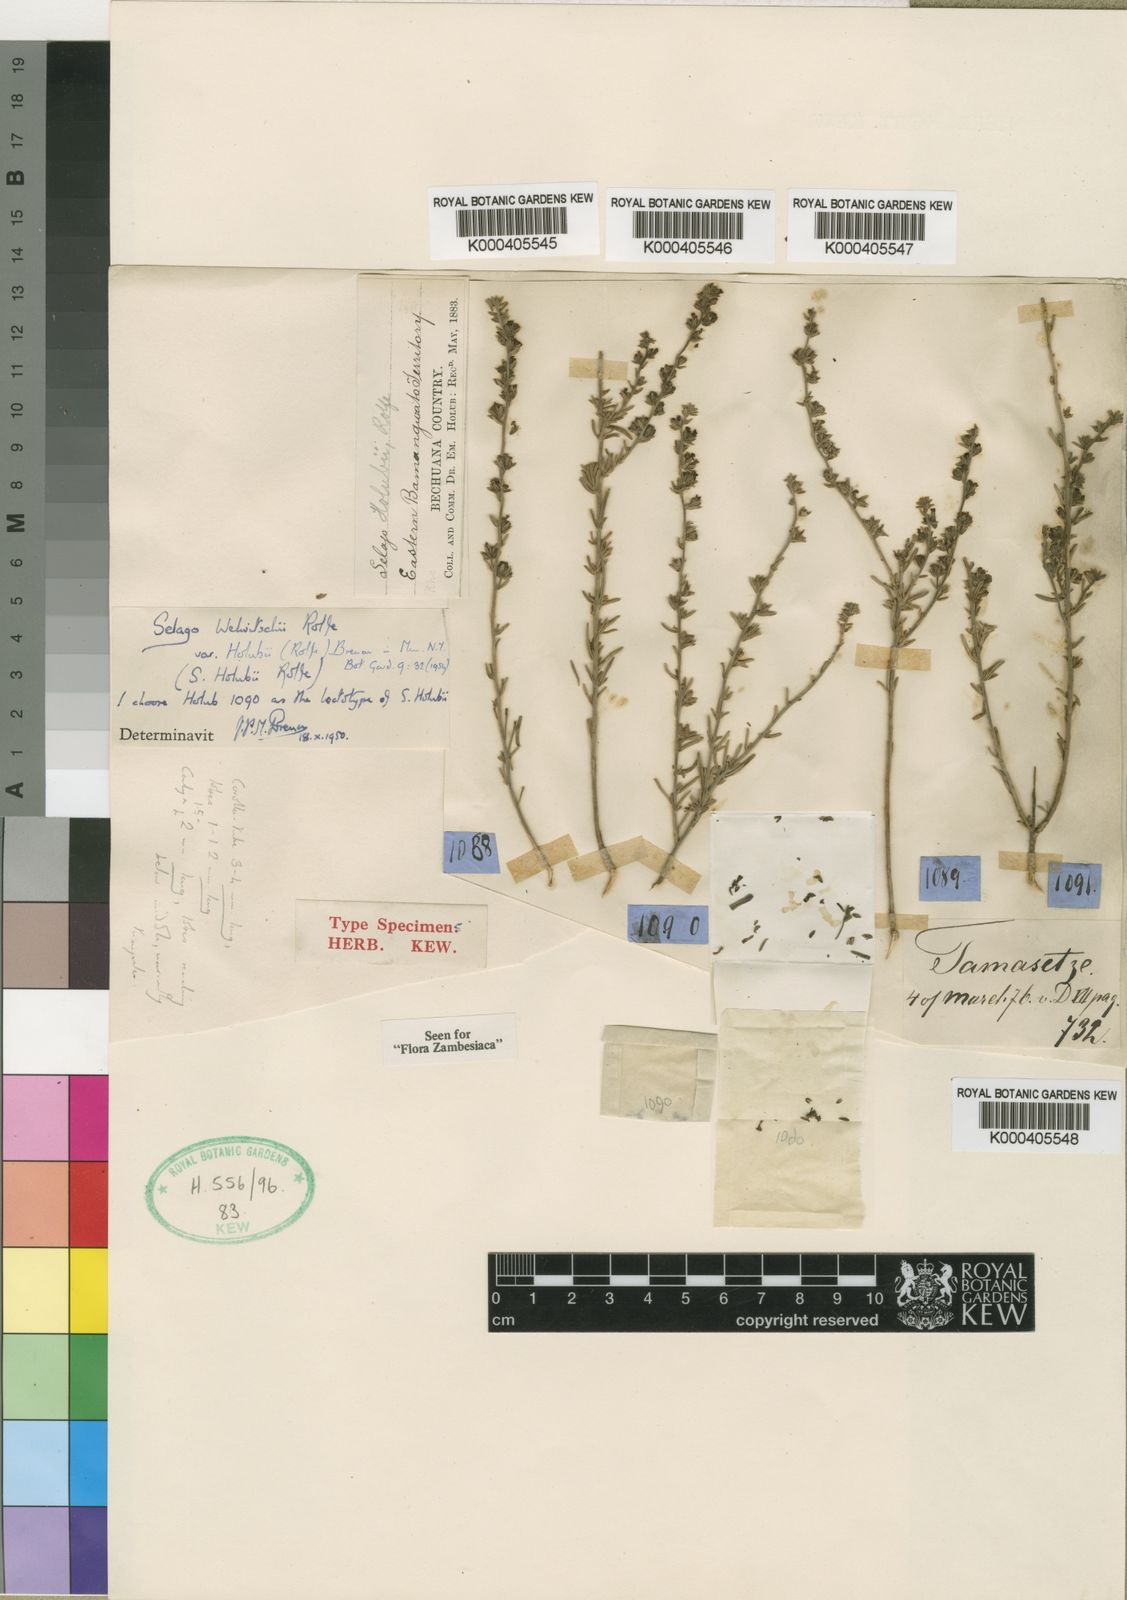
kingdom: Plantae
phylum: Tracheophyta
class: Magnoliopsida
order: Lamiales
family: Scrophulariaceae
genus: Selago
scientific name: Selago welwitschii
